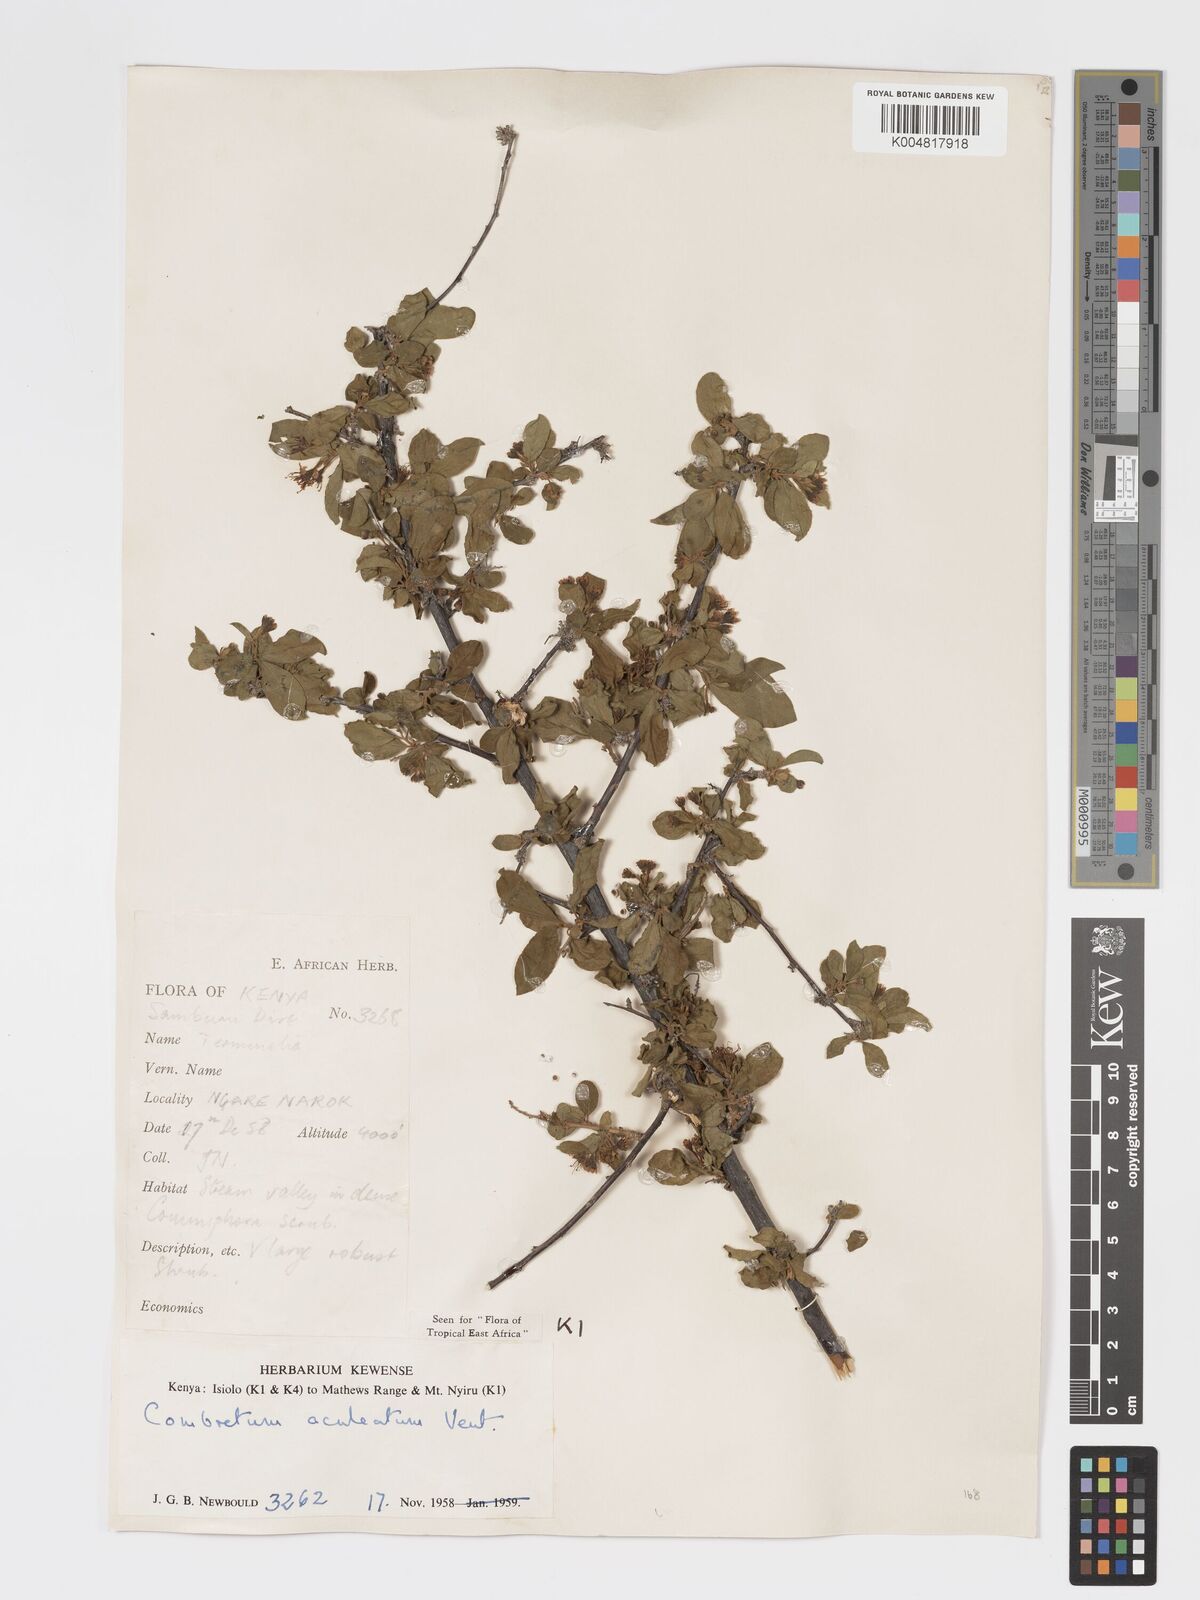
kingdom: Plantae
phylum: Tracheophyta
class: Magnoliopsida
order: Myrtales
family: Combretaceae
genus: Combretum
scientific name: Combretum aculeatum
